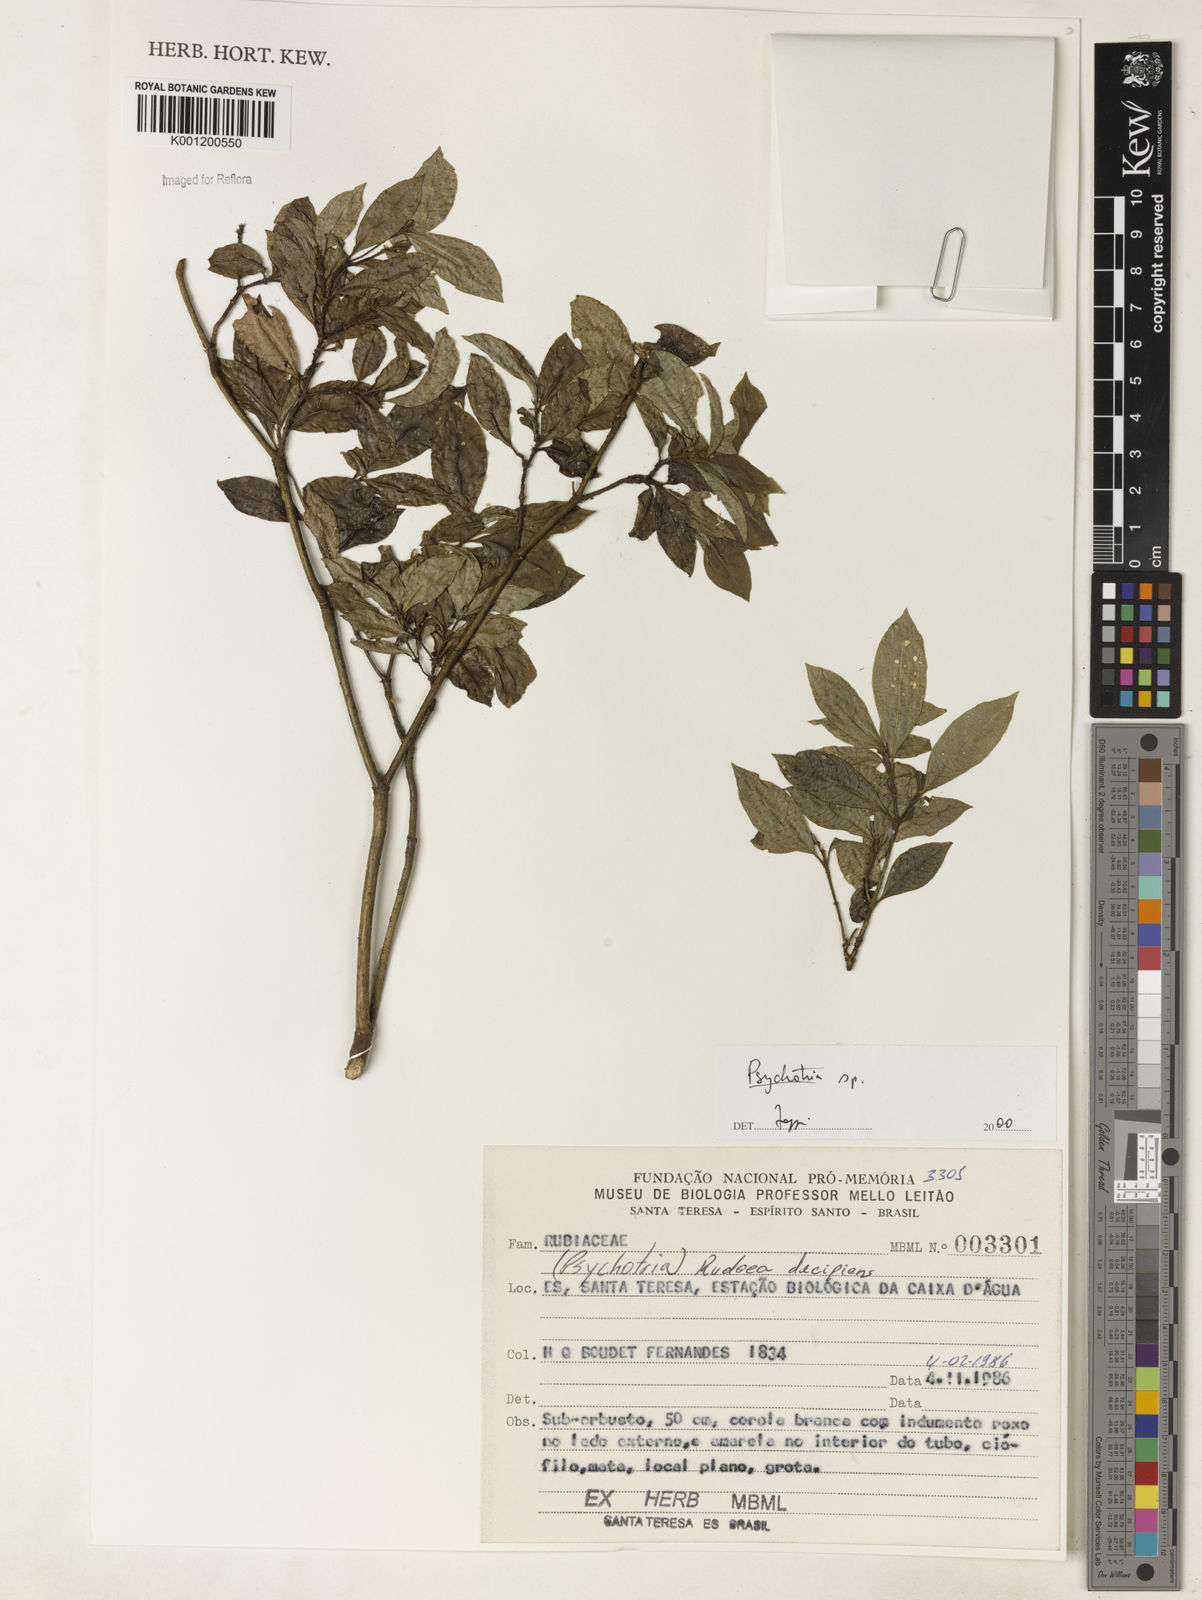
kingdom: Plantae
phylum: Tracheophyta
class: Magnoliopsida
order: Gentianales
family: Rubiaceae
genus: Psychotria
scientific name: Psychotria
